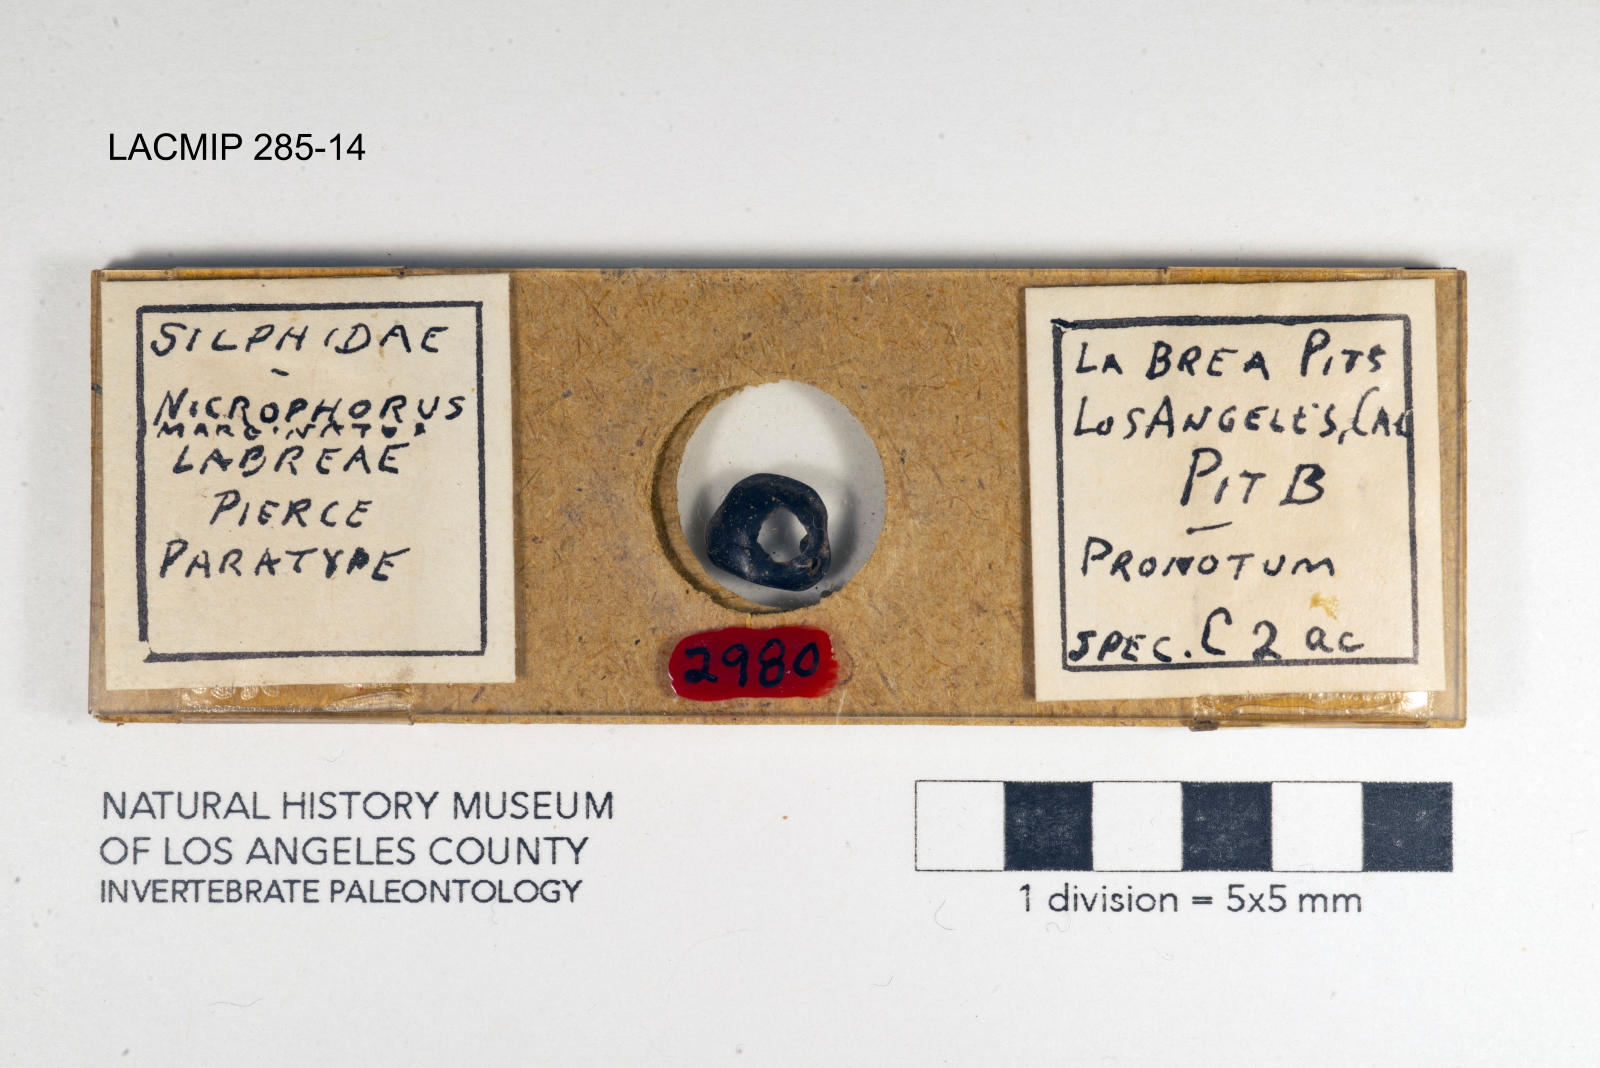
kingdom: Animalia
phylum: Arthropoda
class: Insecta
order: Coleoptera
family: Staphylinidae
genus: Nicrophorus
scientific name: Nicrophorus marginatus
